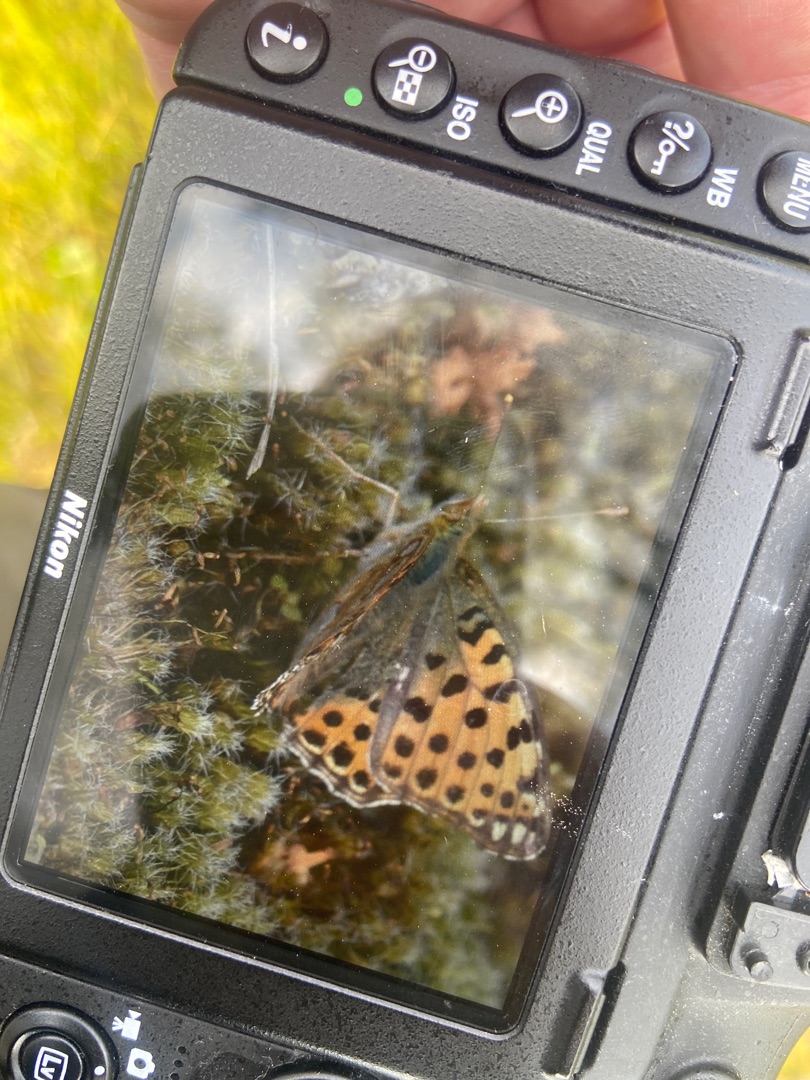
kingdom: Animalia
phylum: Arthropoda
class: Insecta
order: Lepidoptera
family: Nymphalidae
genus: Issoria
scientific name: Issoria lathonia
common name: Storplettet perlemorsommerfugl
